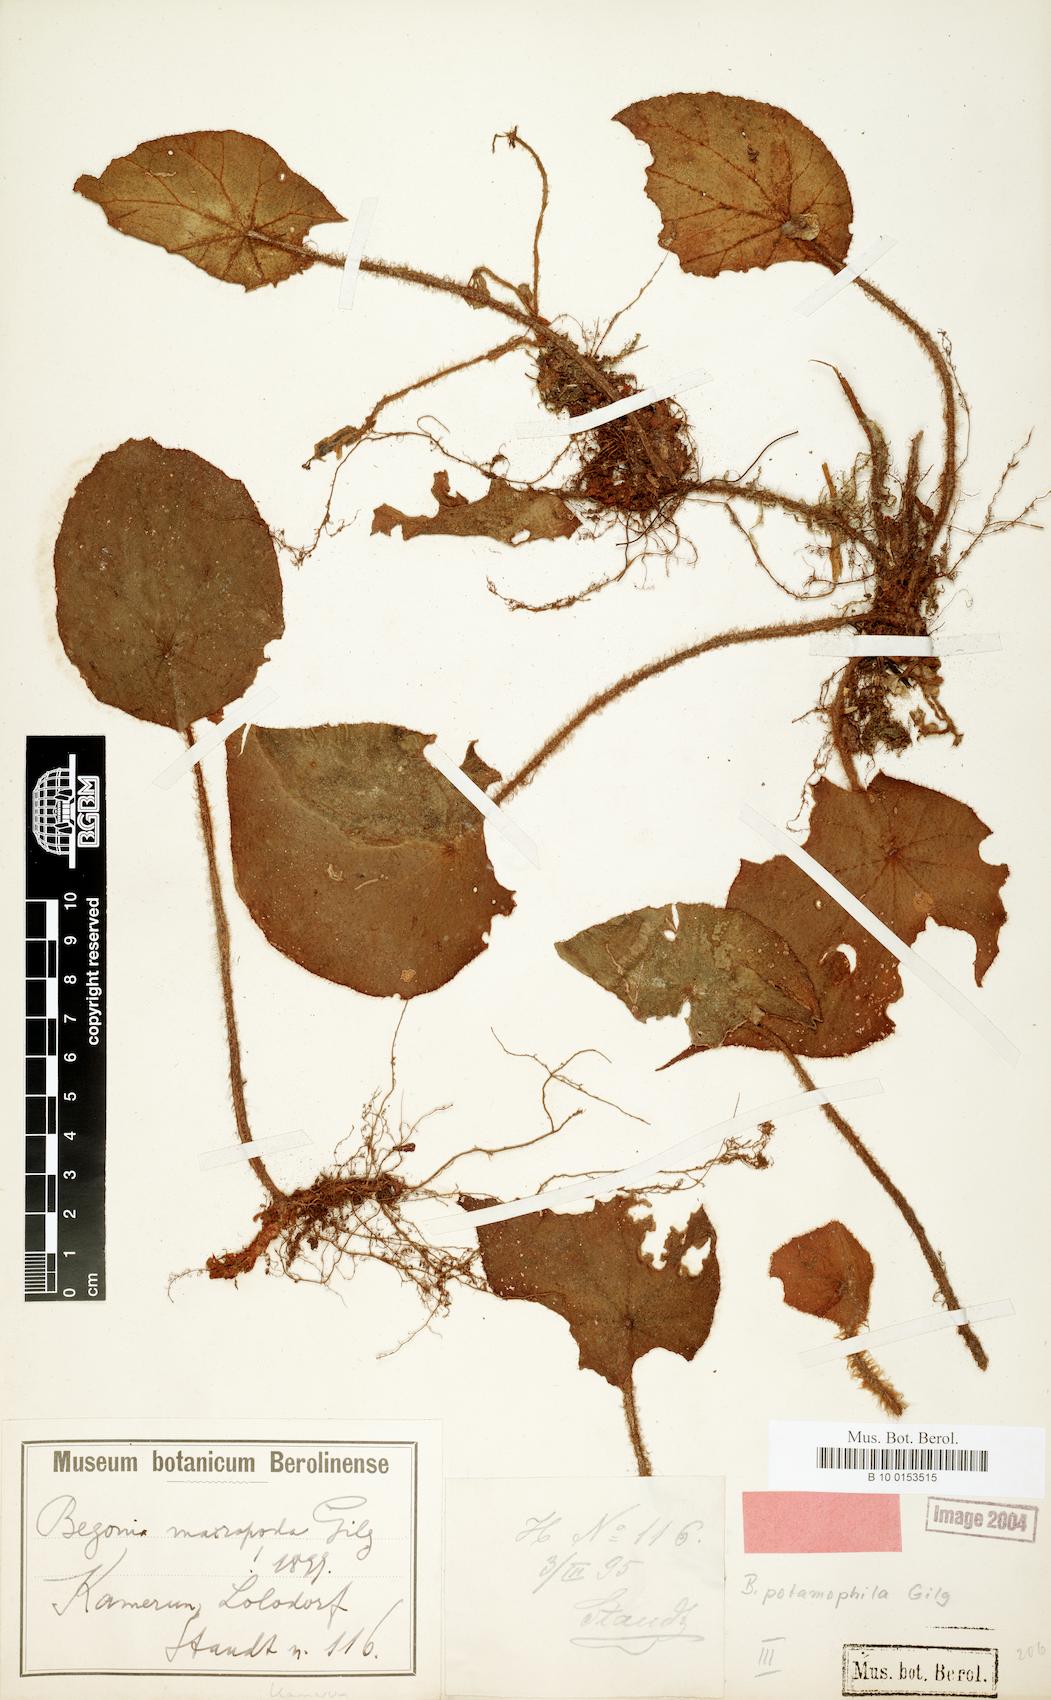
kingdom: Plantae
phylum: Tracheophyta
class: Magnoliopsida
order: Cucurbitales
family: Begoniaceae
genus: Begonia
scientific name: Begonia potamophila
